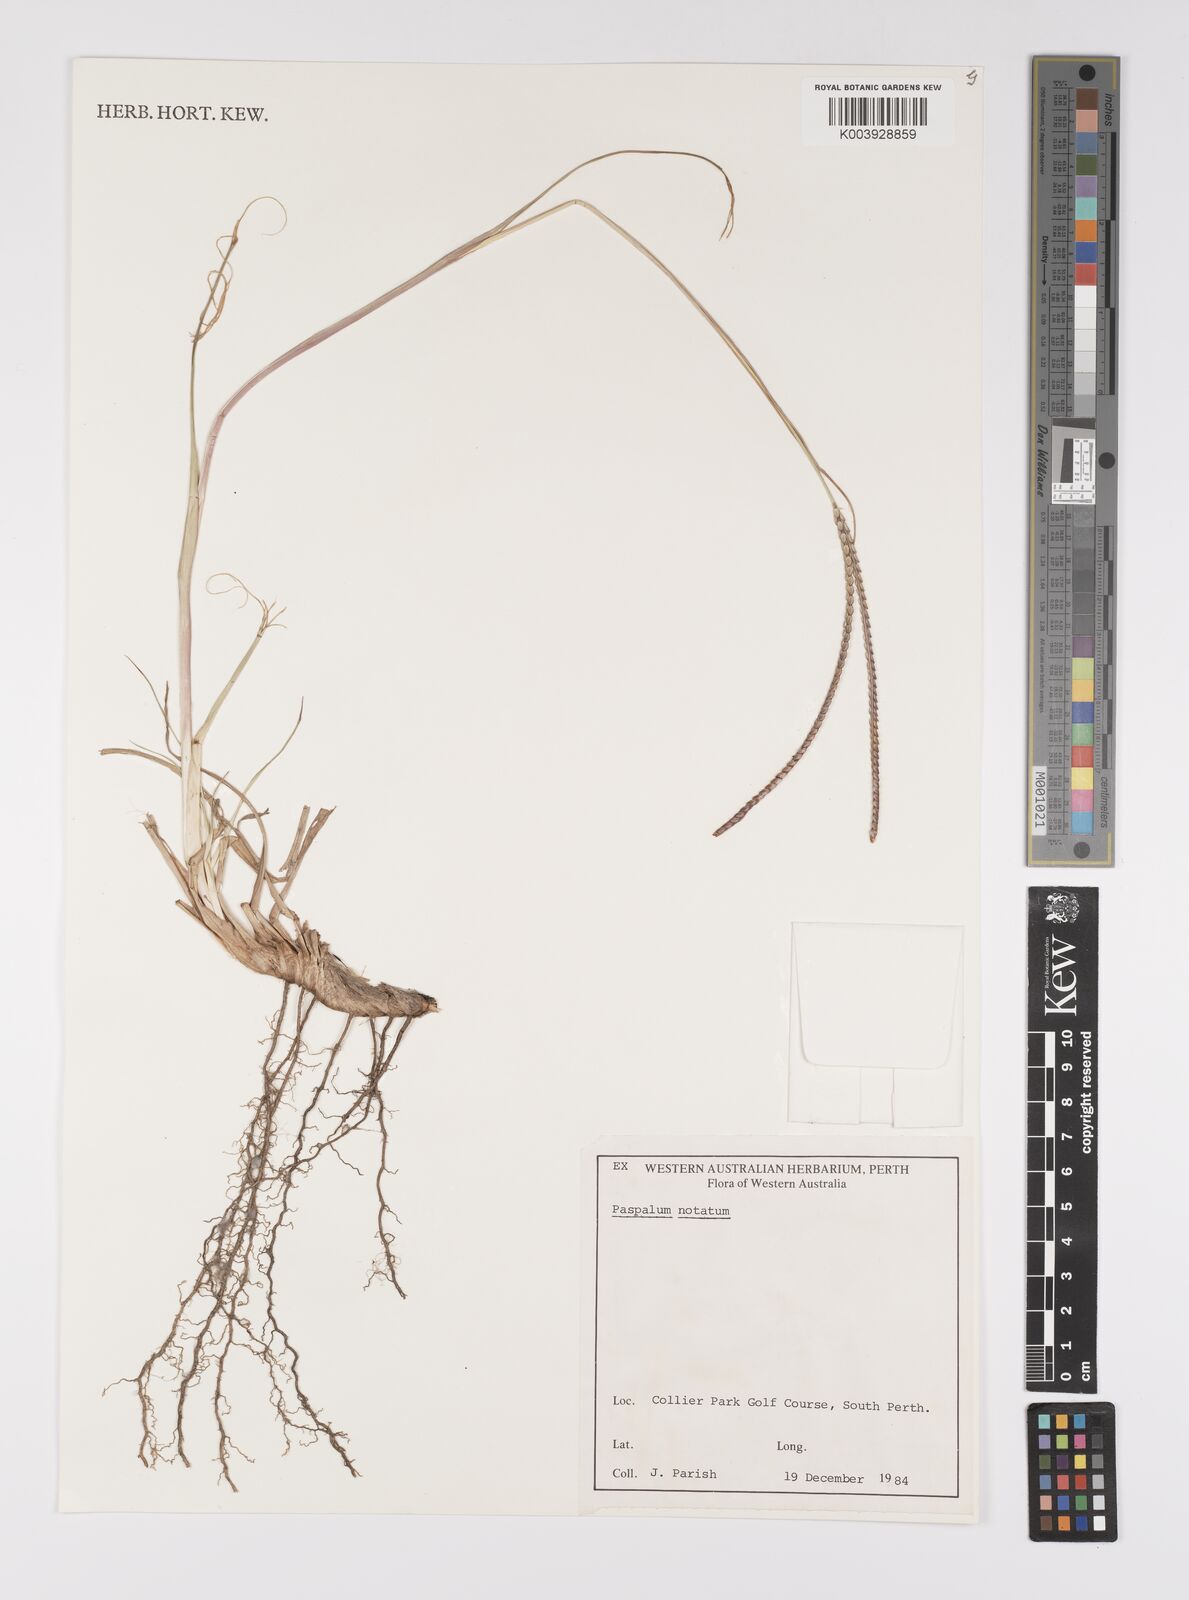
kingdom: Plantae
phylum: Tracheophyta
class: Liliopsida
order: Poales
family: Poaceae
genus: Paspalum
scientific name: Paspalum notatum
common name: Bahiagrass
